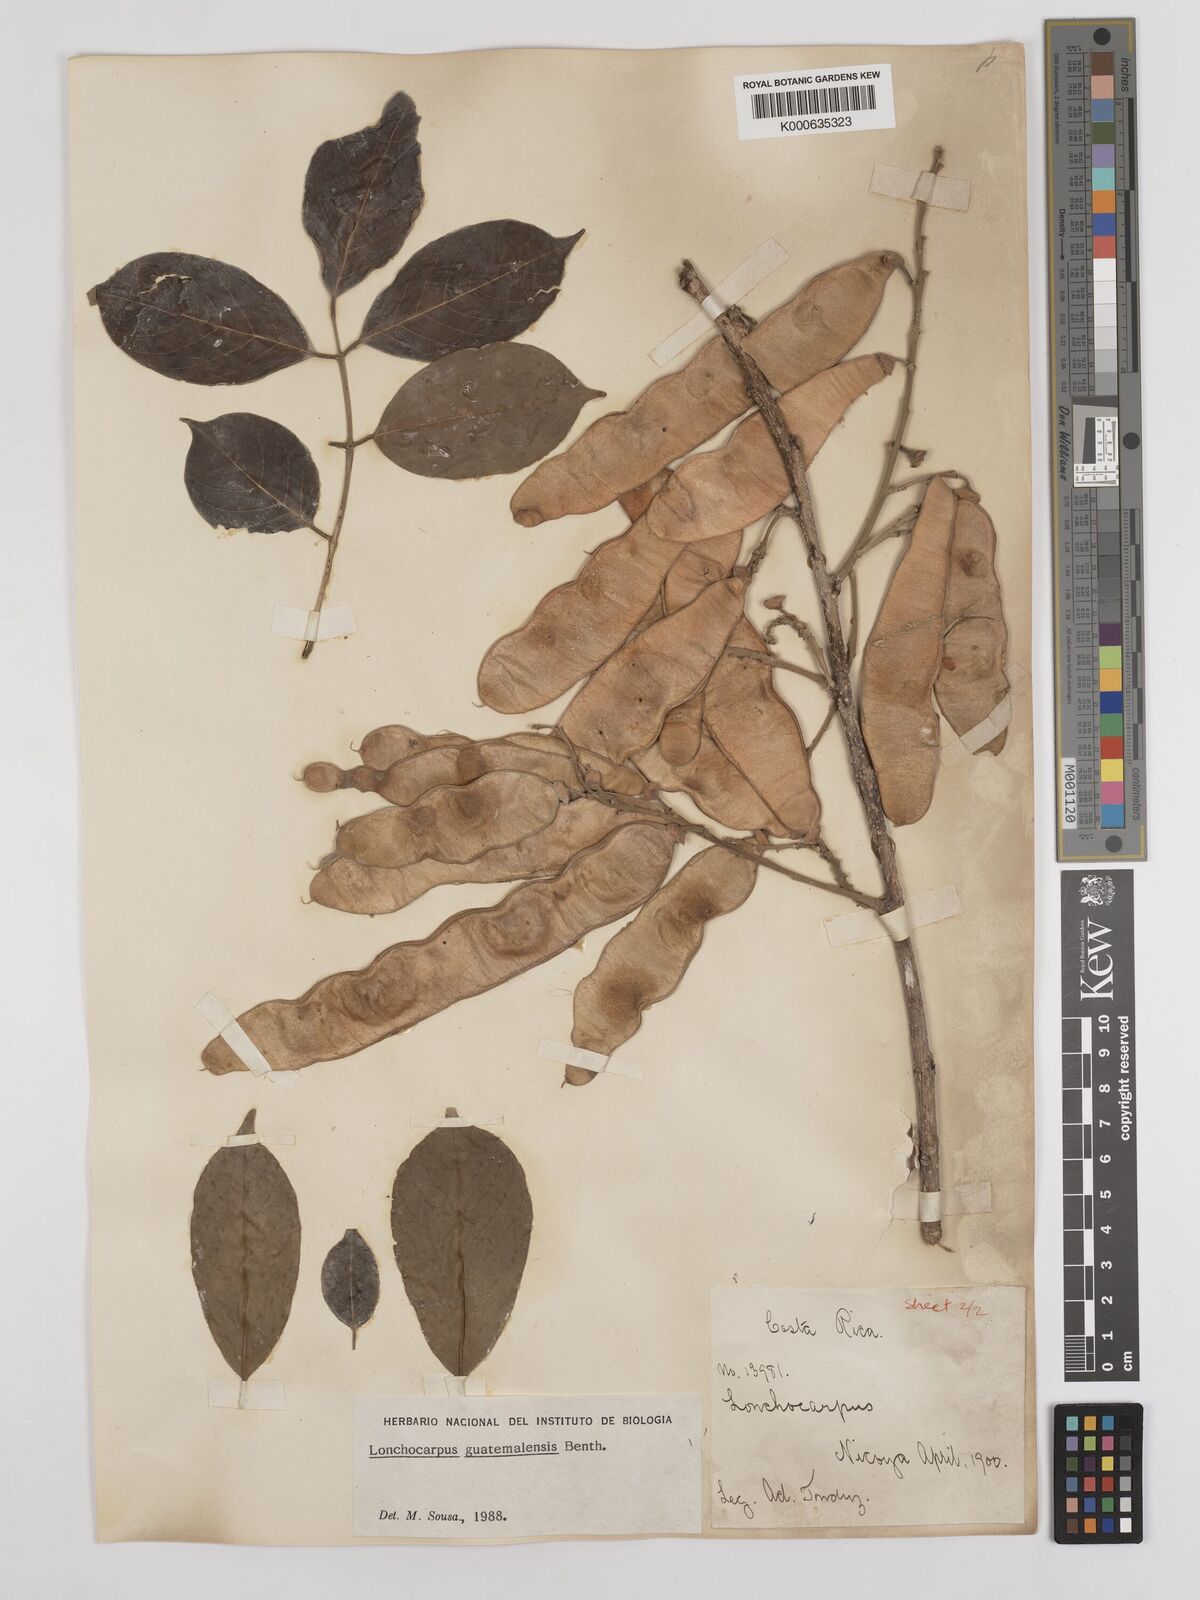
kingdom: Plantae
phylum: Tracheophyta
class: Magnoliopsida
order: Fabales
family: Fabaceae
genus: Lonchocarpus
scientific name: Lonchocarpus guatemalensis
